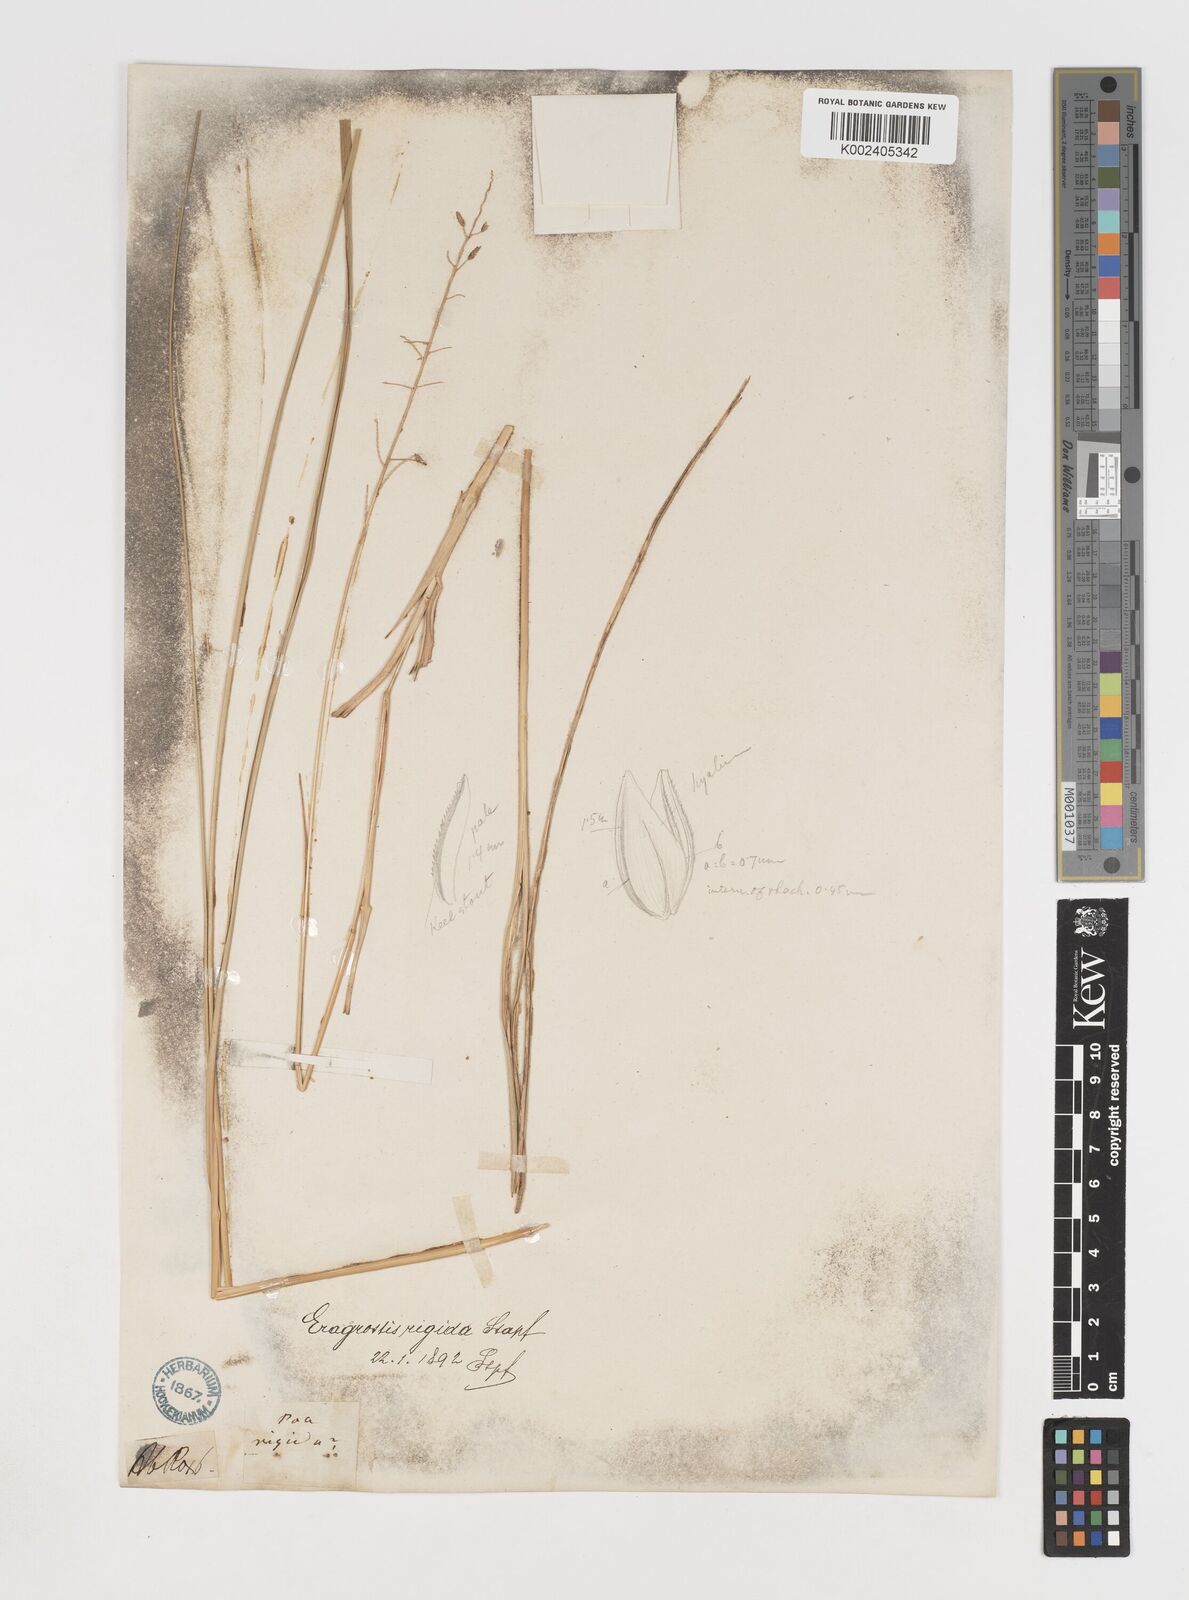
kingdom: Plantae
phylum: Tracheophyta
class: Liliopsida
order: Poales
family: Poaceae
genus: Eragrostiella
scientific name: Eragrostiella bifaria
